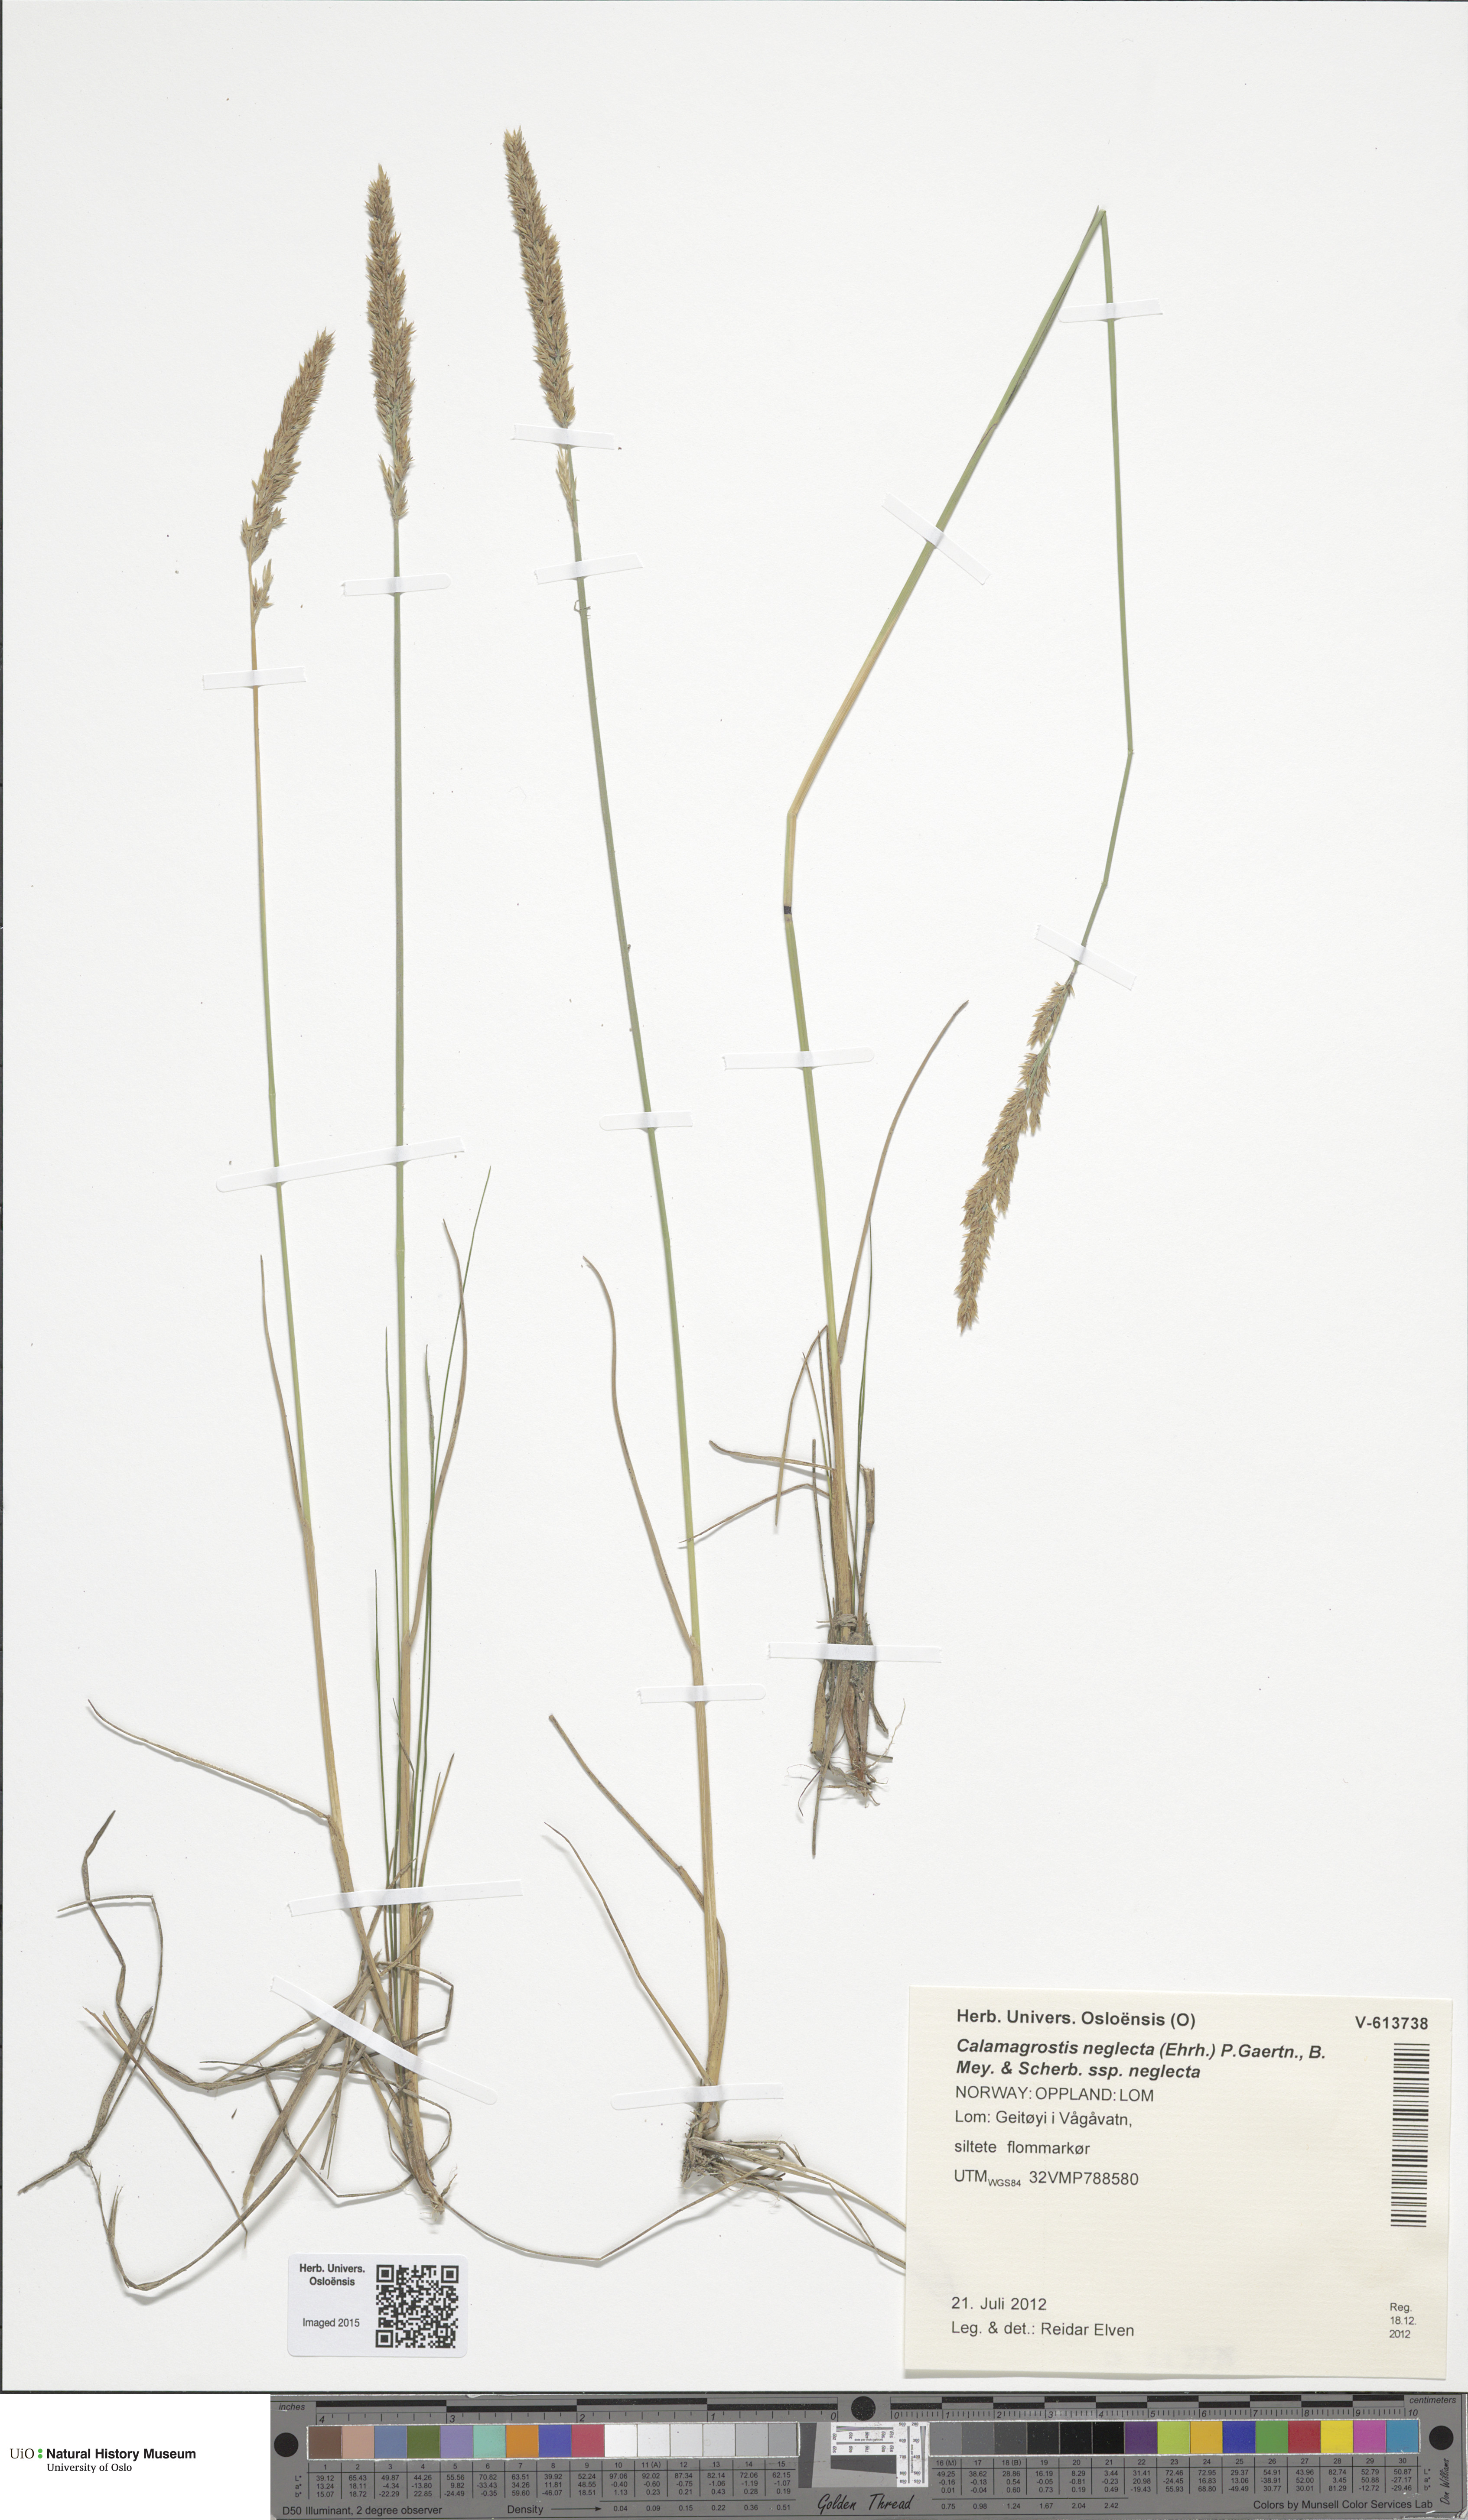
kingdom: Plantae
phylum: Tracheophyta
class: Liliopsida
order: Poales
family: Poaceae
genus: Achnatherum
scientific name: Achnatherum calamagrostis
